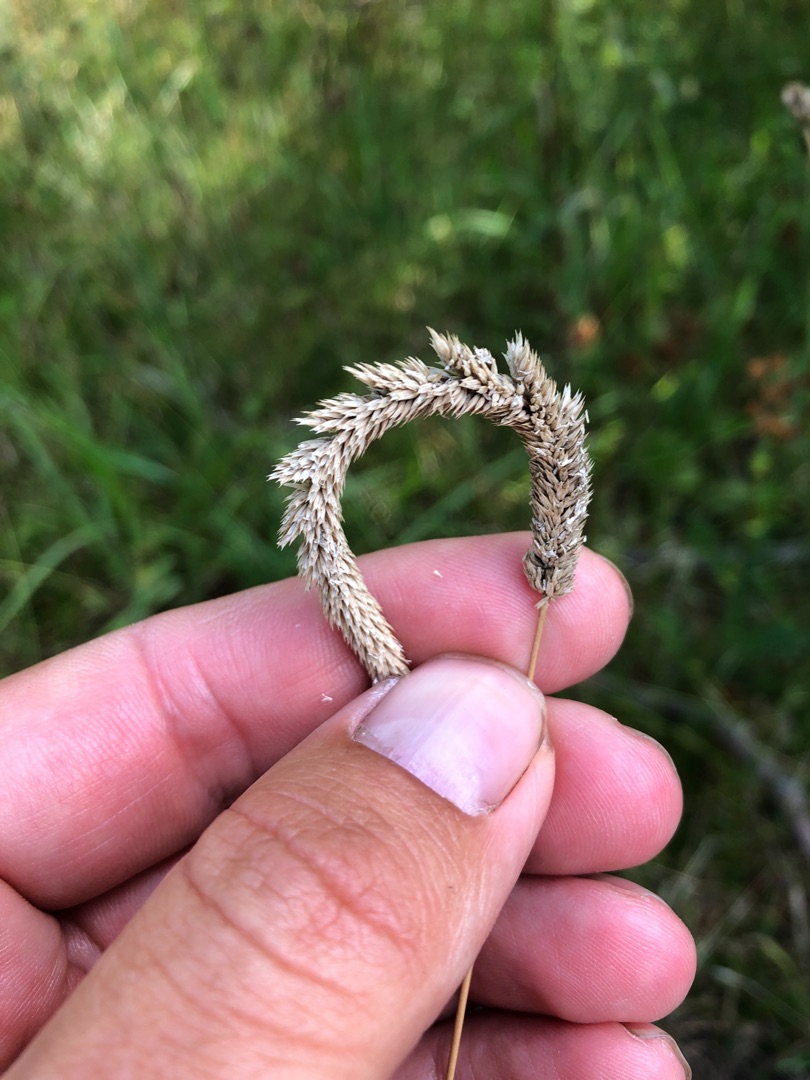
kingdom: Plantae
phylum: Tracheophyta
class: Liliopsida
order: Poales
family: Poaceae
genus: Phleum
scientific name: Phleum phleoides
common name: Glat rottehale
